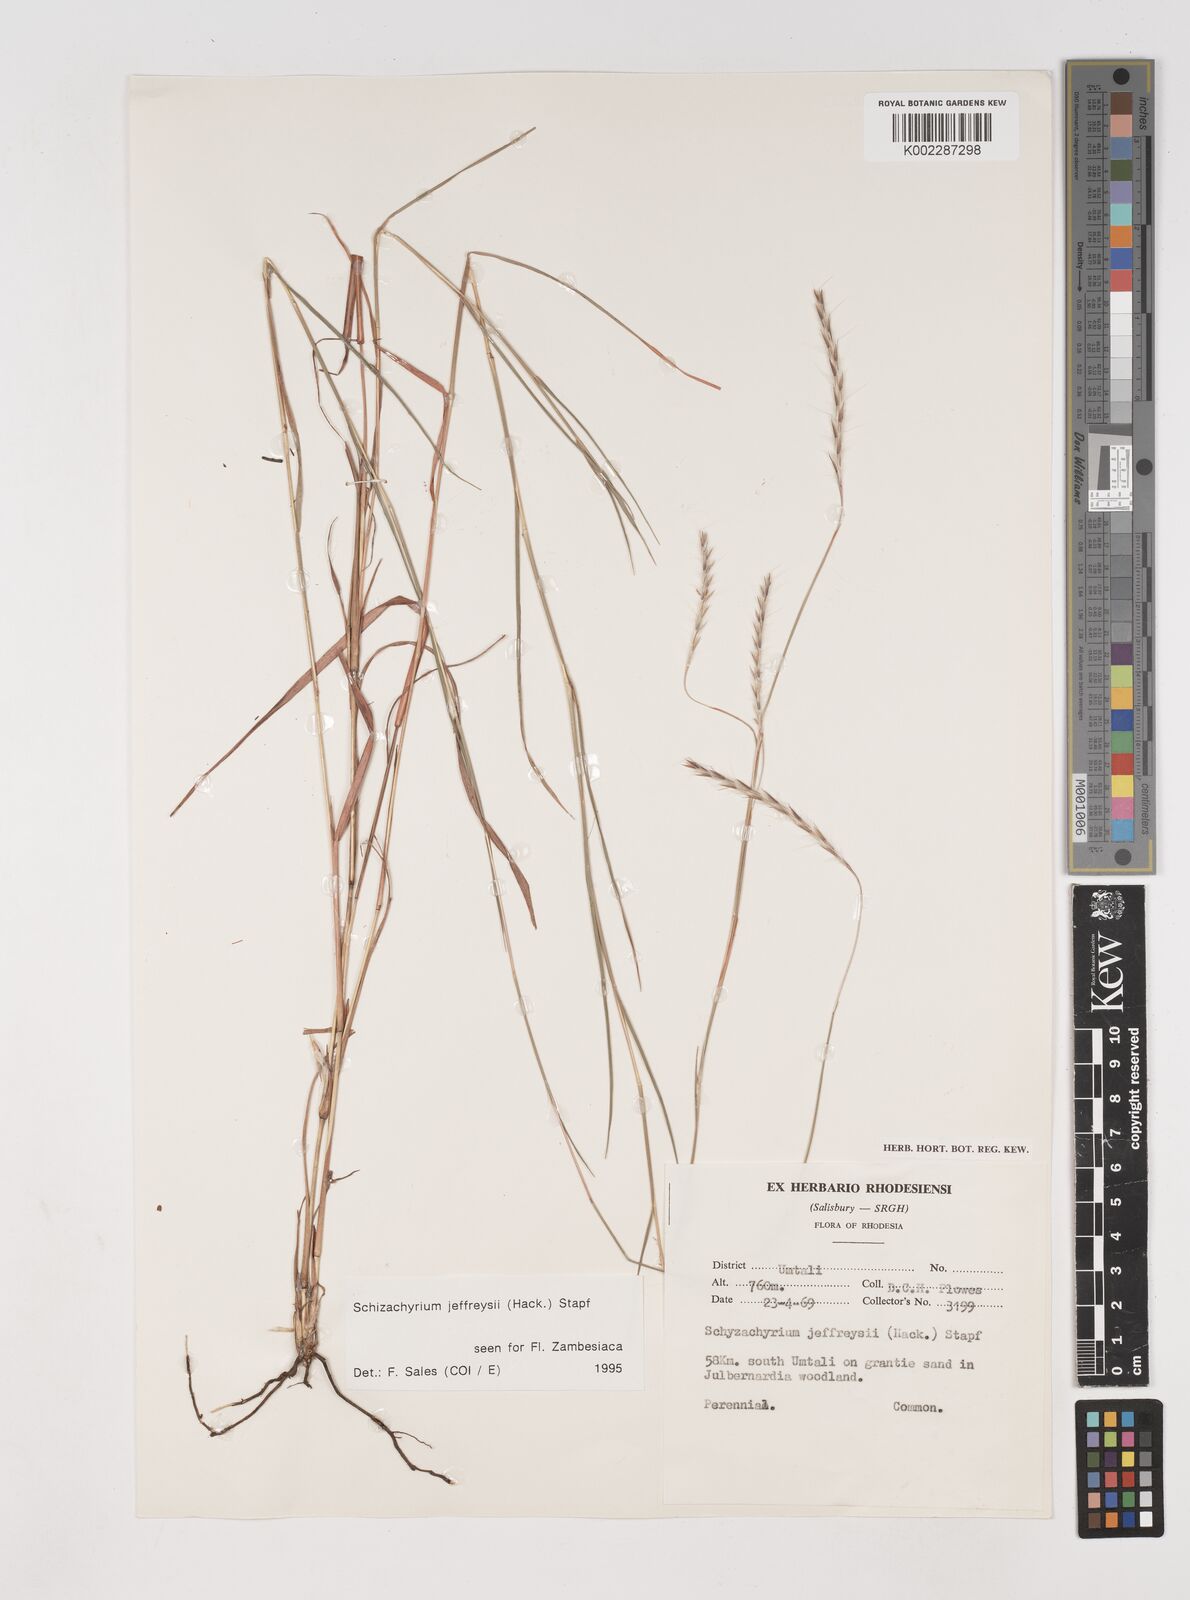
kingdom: Plantae
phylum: Tracheophyta
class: Liliopsida
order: Poales
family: Poaceae
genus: Schizachyrium
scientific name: Schizachyrium jeffreysii
